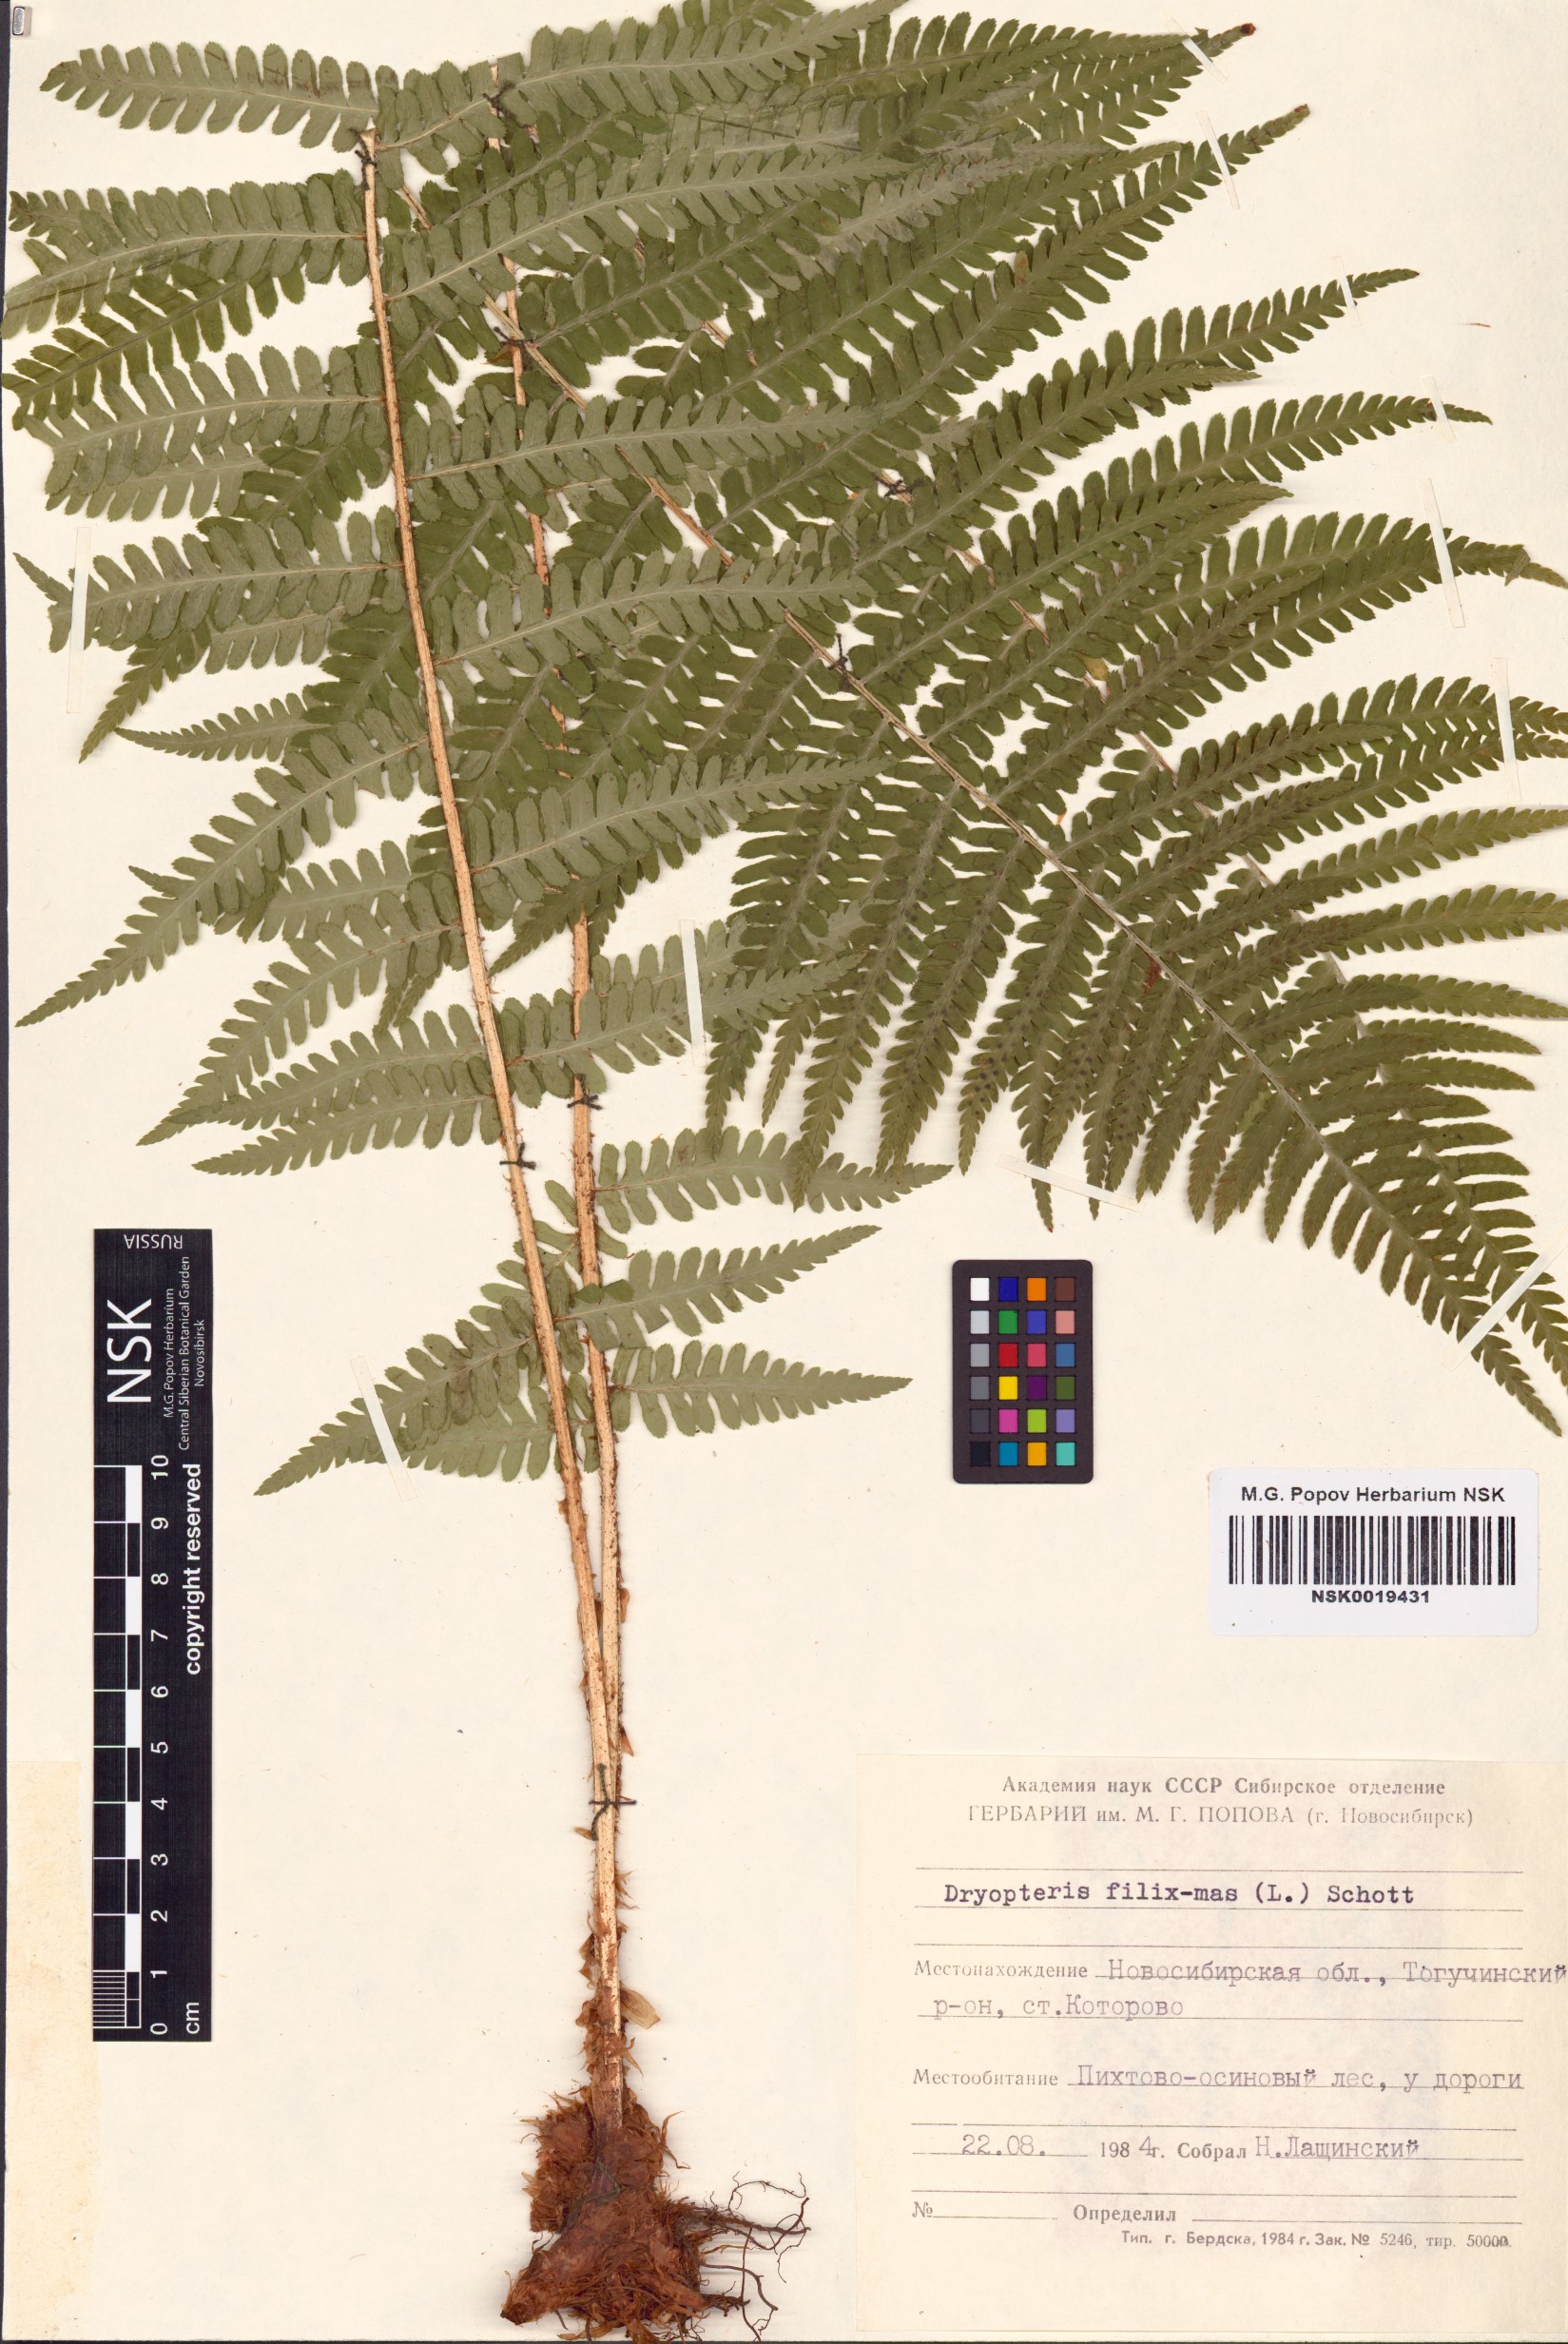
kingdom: Plantae
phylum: Tracheophyta
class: Polypodiopsida
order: Polypodiales
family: Dryopteridaceae
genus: Dryopteris
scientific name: Dryopteris filix-mas
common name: Male fern
